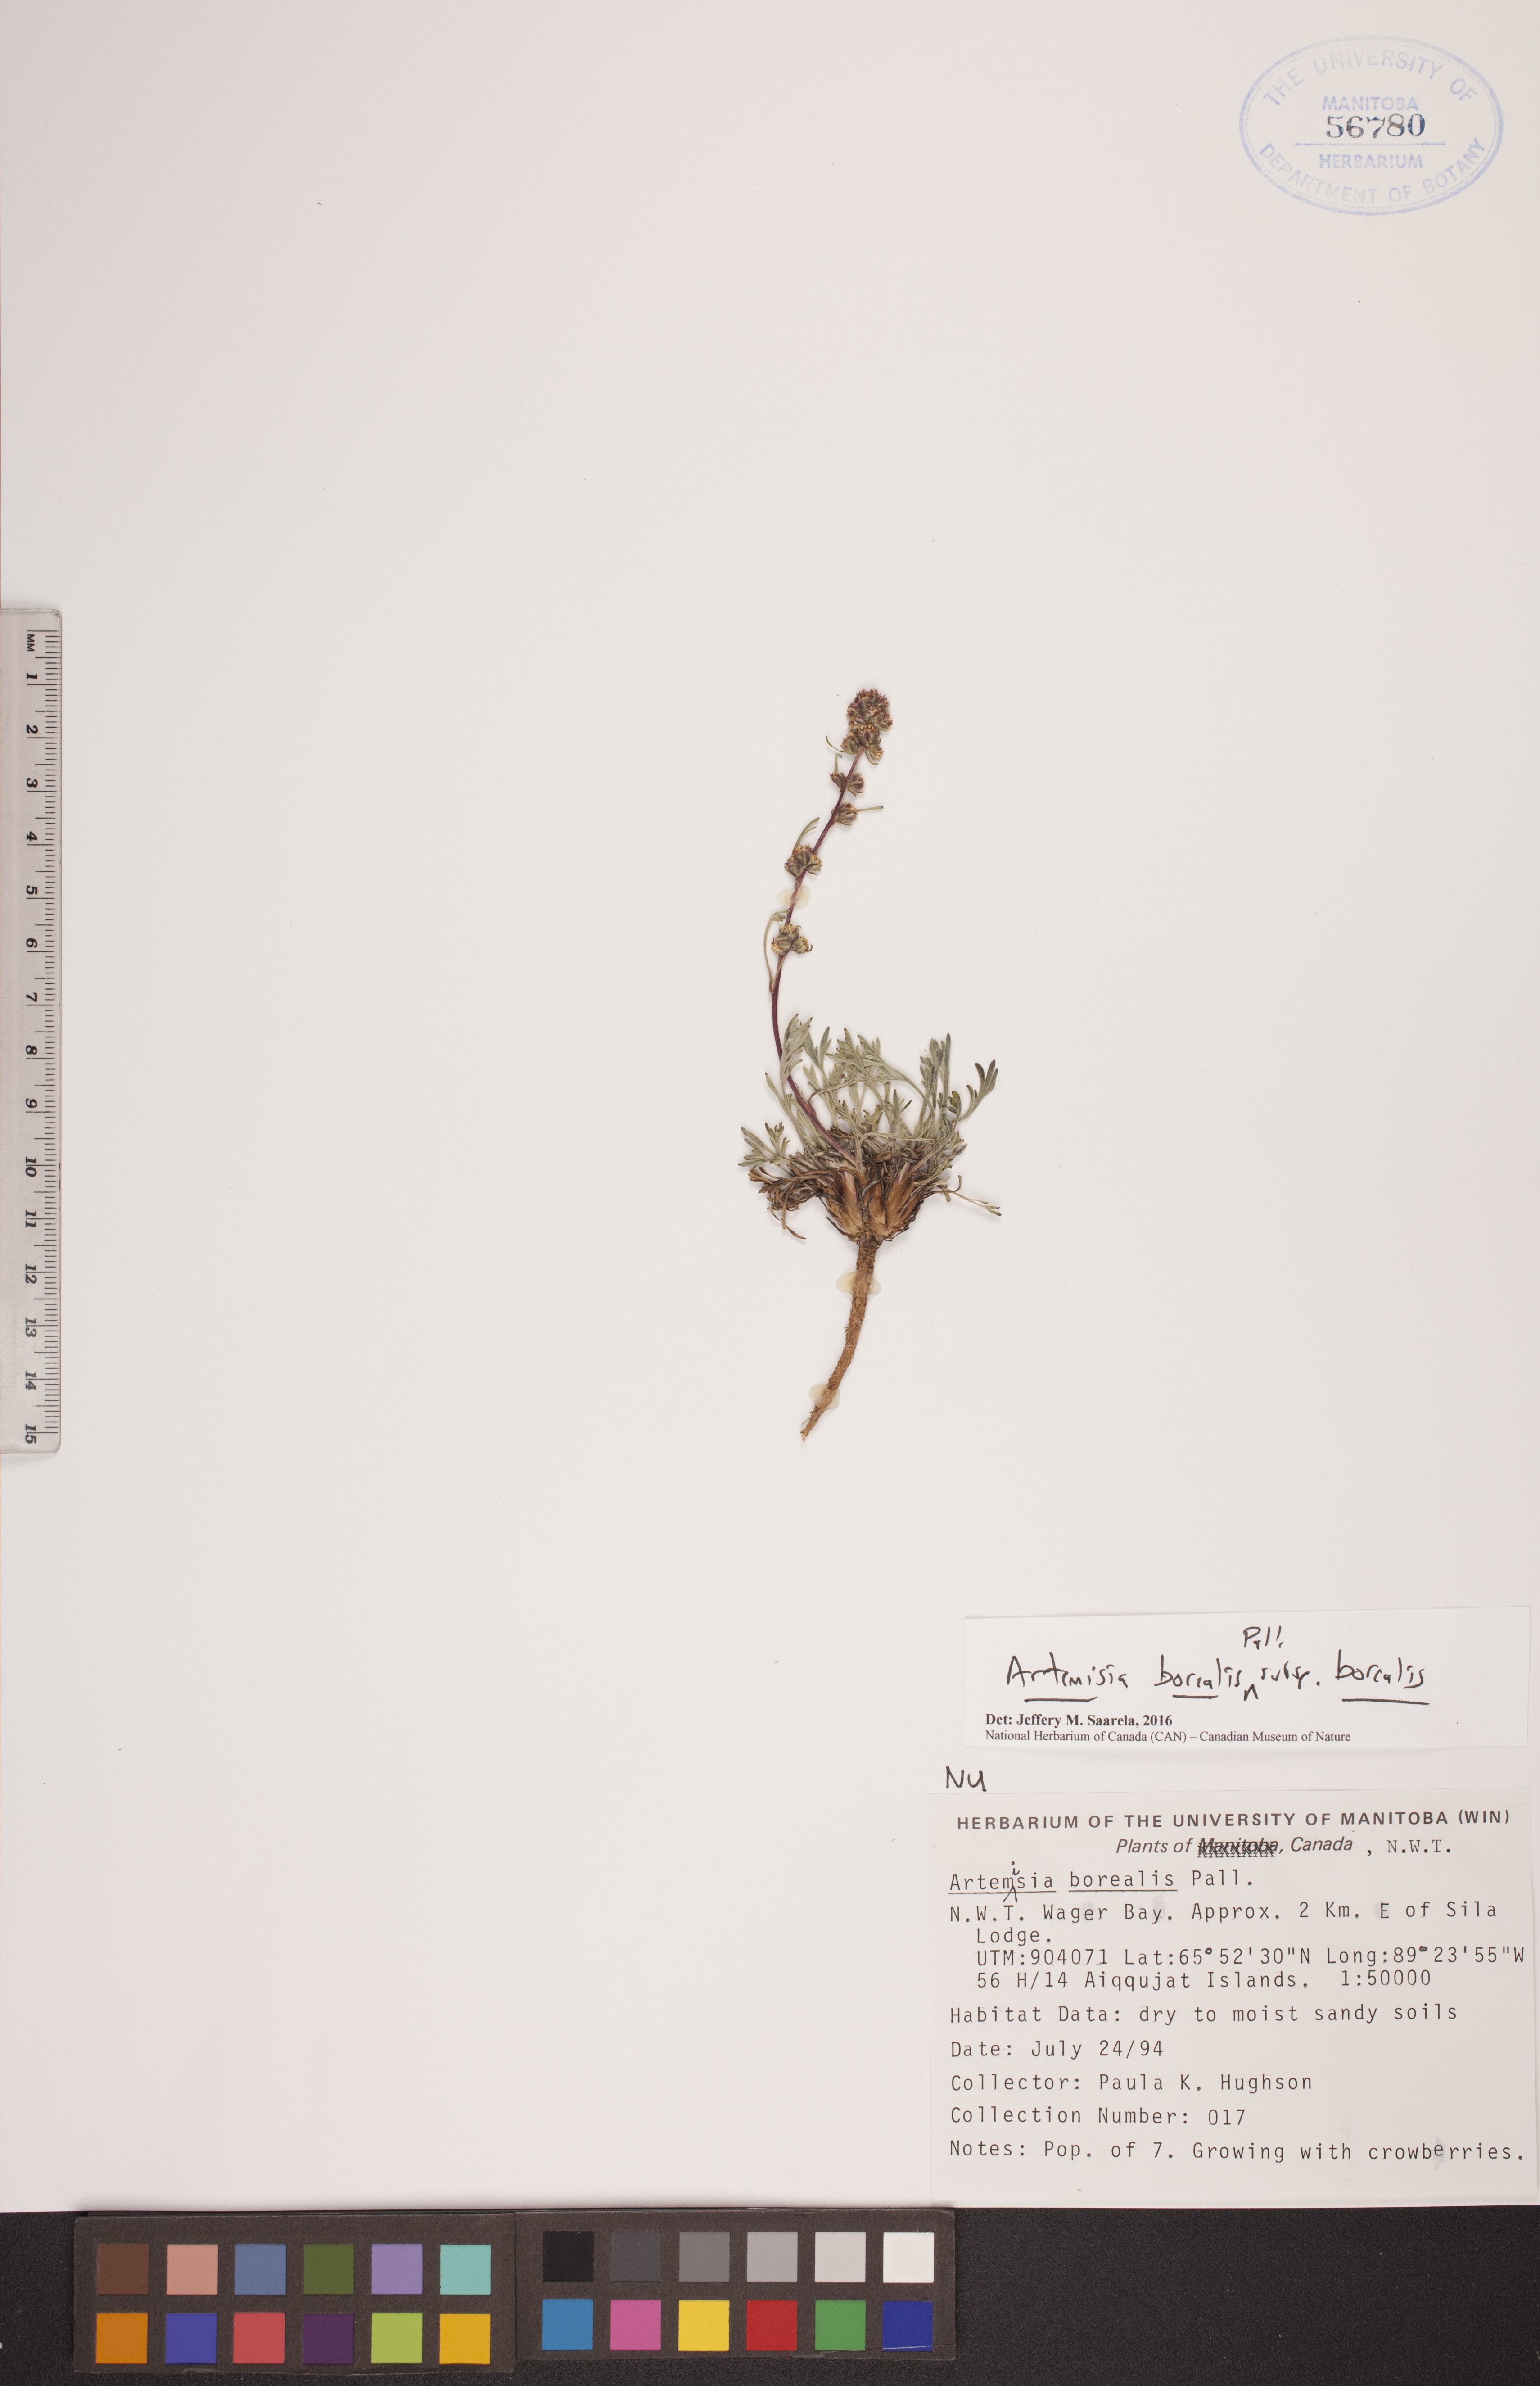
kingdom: Plantae
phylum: Tracheophyta
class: Magnoliopsida
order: Asterales
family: Asteraceae
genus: Artemisia
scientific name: Artemisia borealis
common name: Boreal sage
